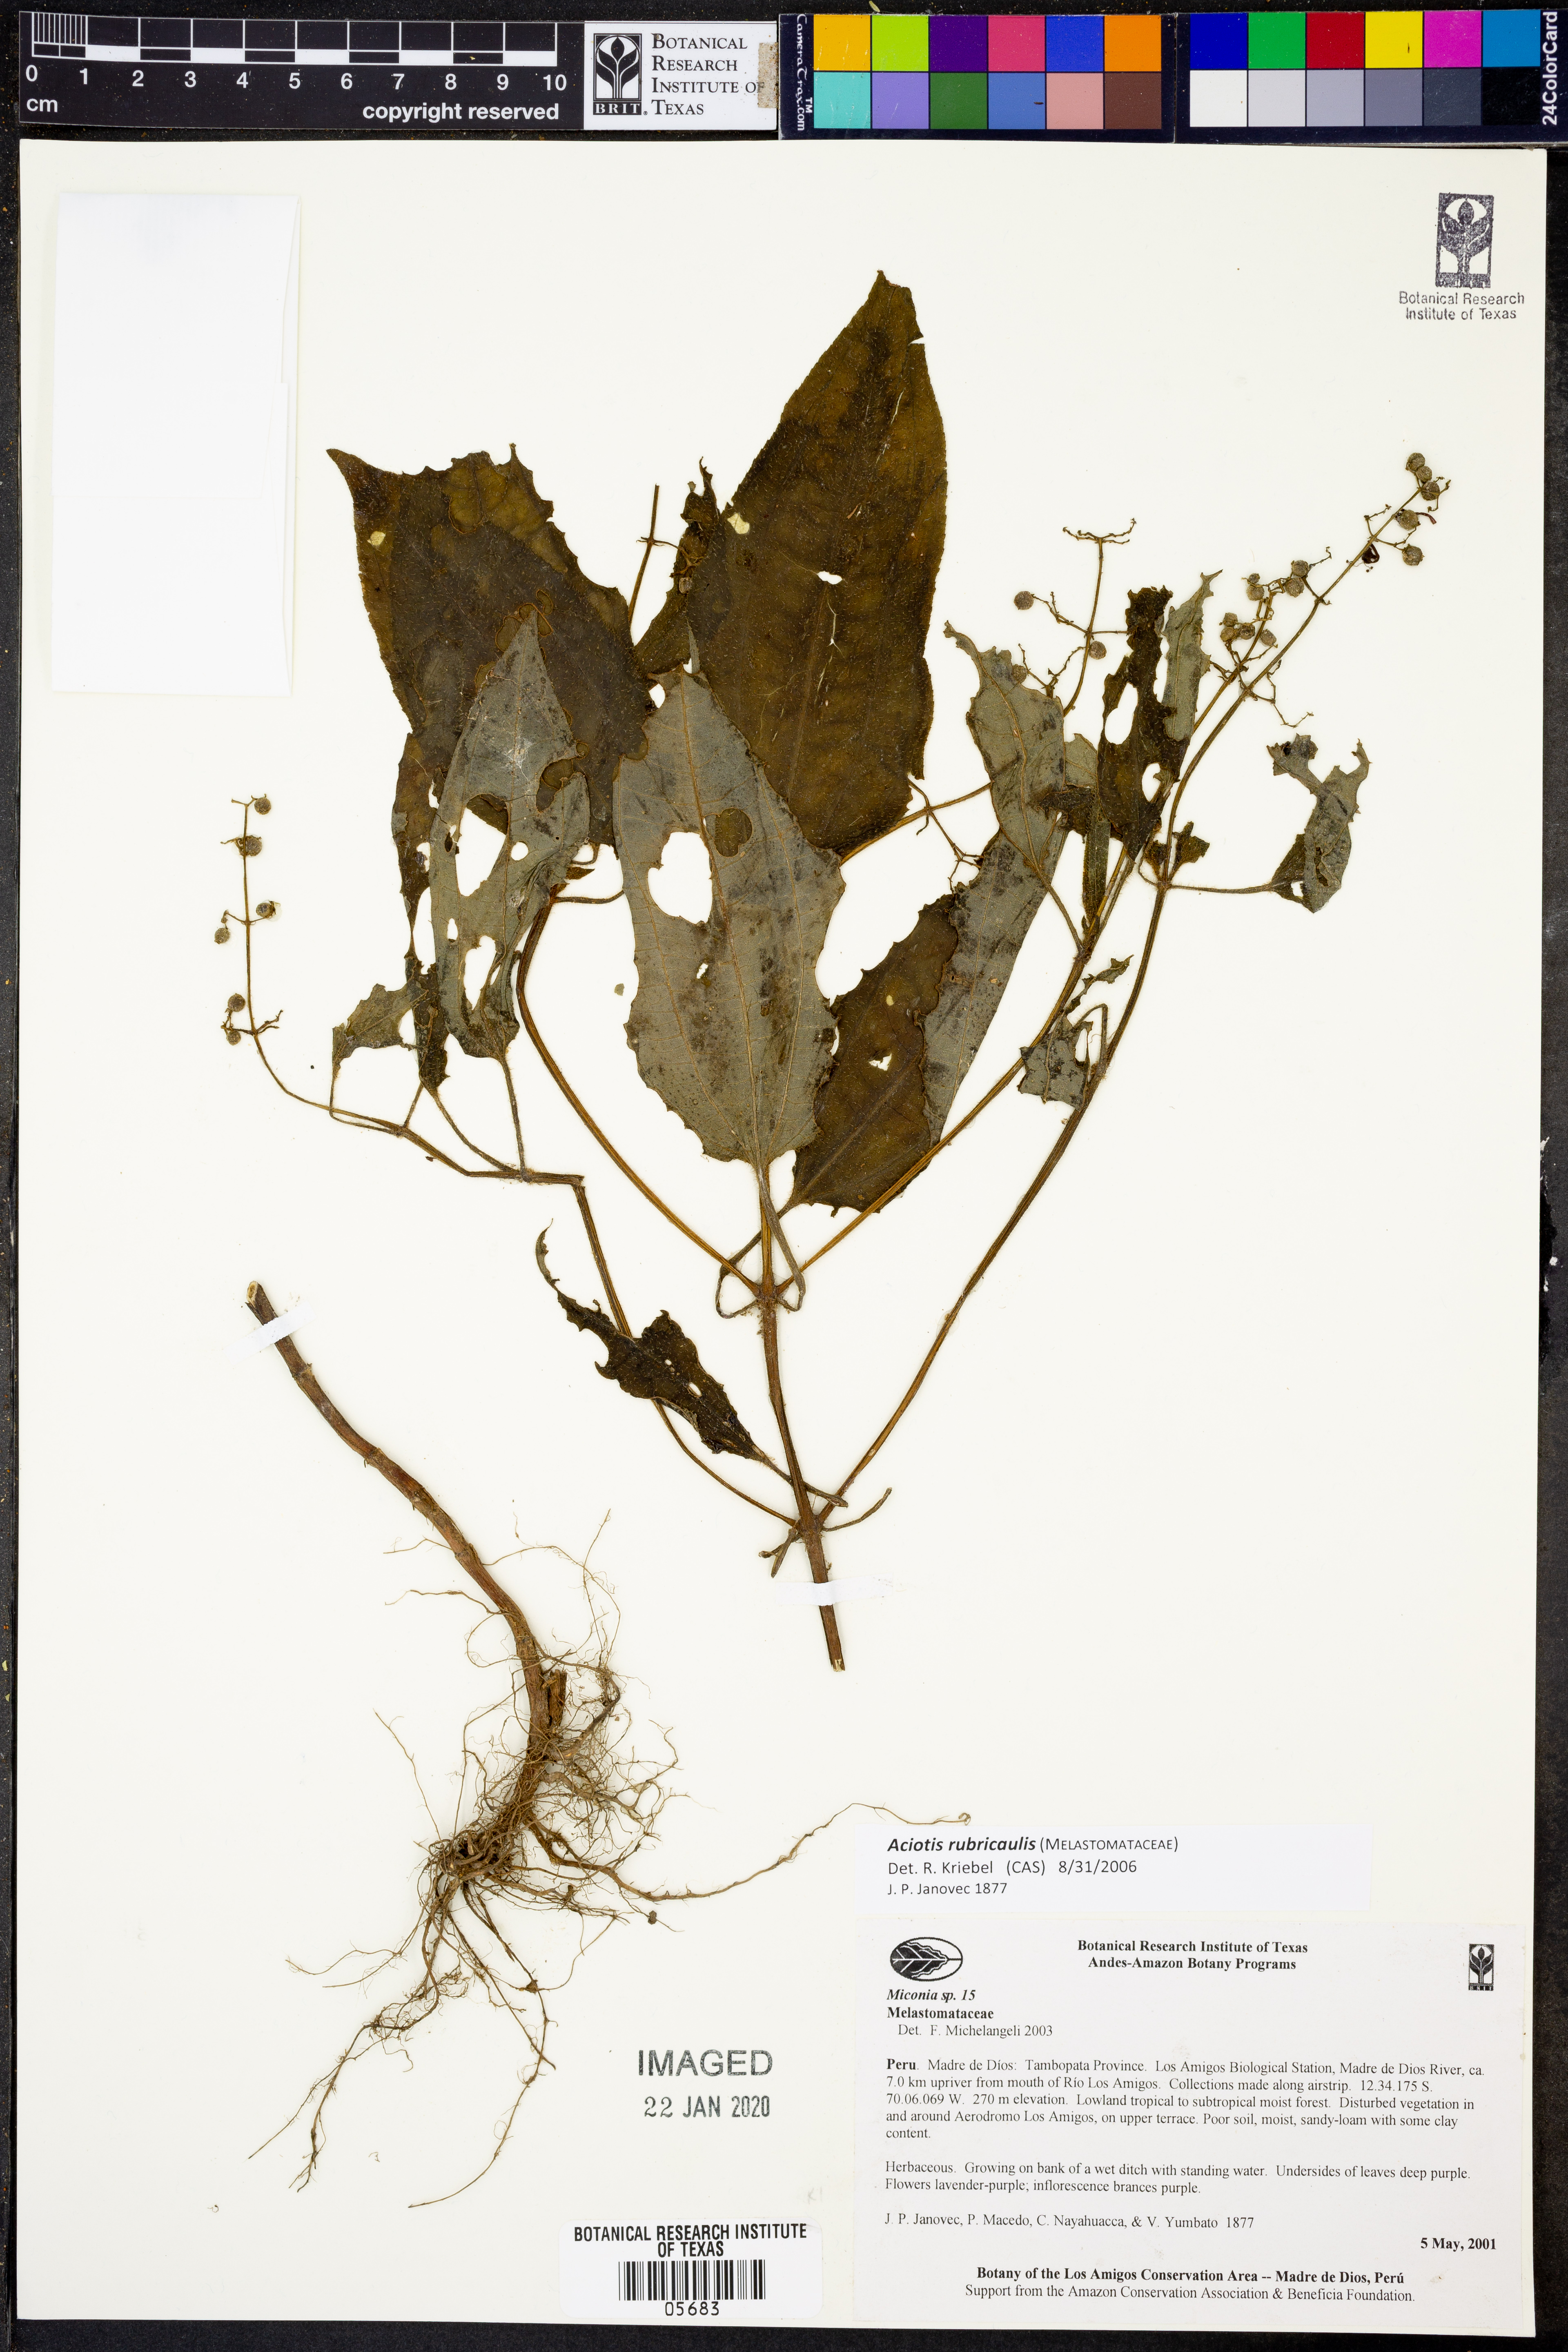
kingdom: Plantae
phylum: Tracheophyta
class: Magnoliopsida
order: Myrtales
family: Melastomataceae
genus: Aciotis
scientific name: Aciotis rubricaulis
